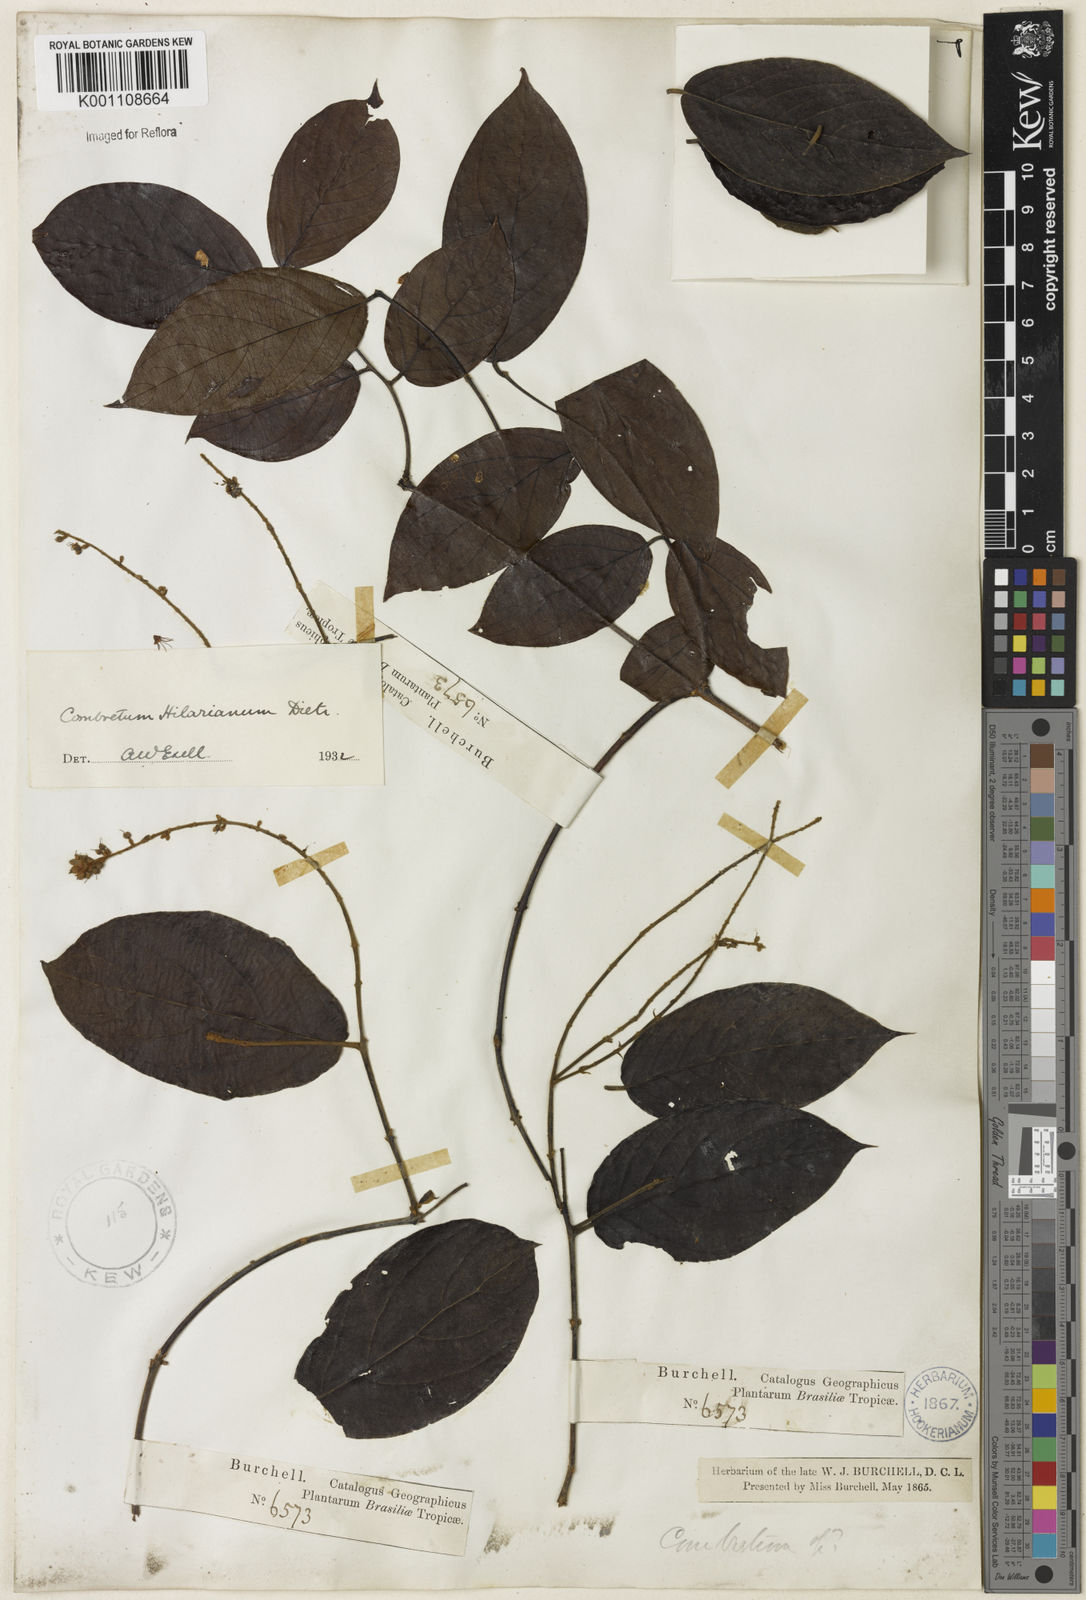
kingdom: Plantae
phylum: Tracheophyta
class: Magnoliopsida
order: Myrtales
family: Combretaceae
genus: Combretum
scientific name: Combretum hilarianum
